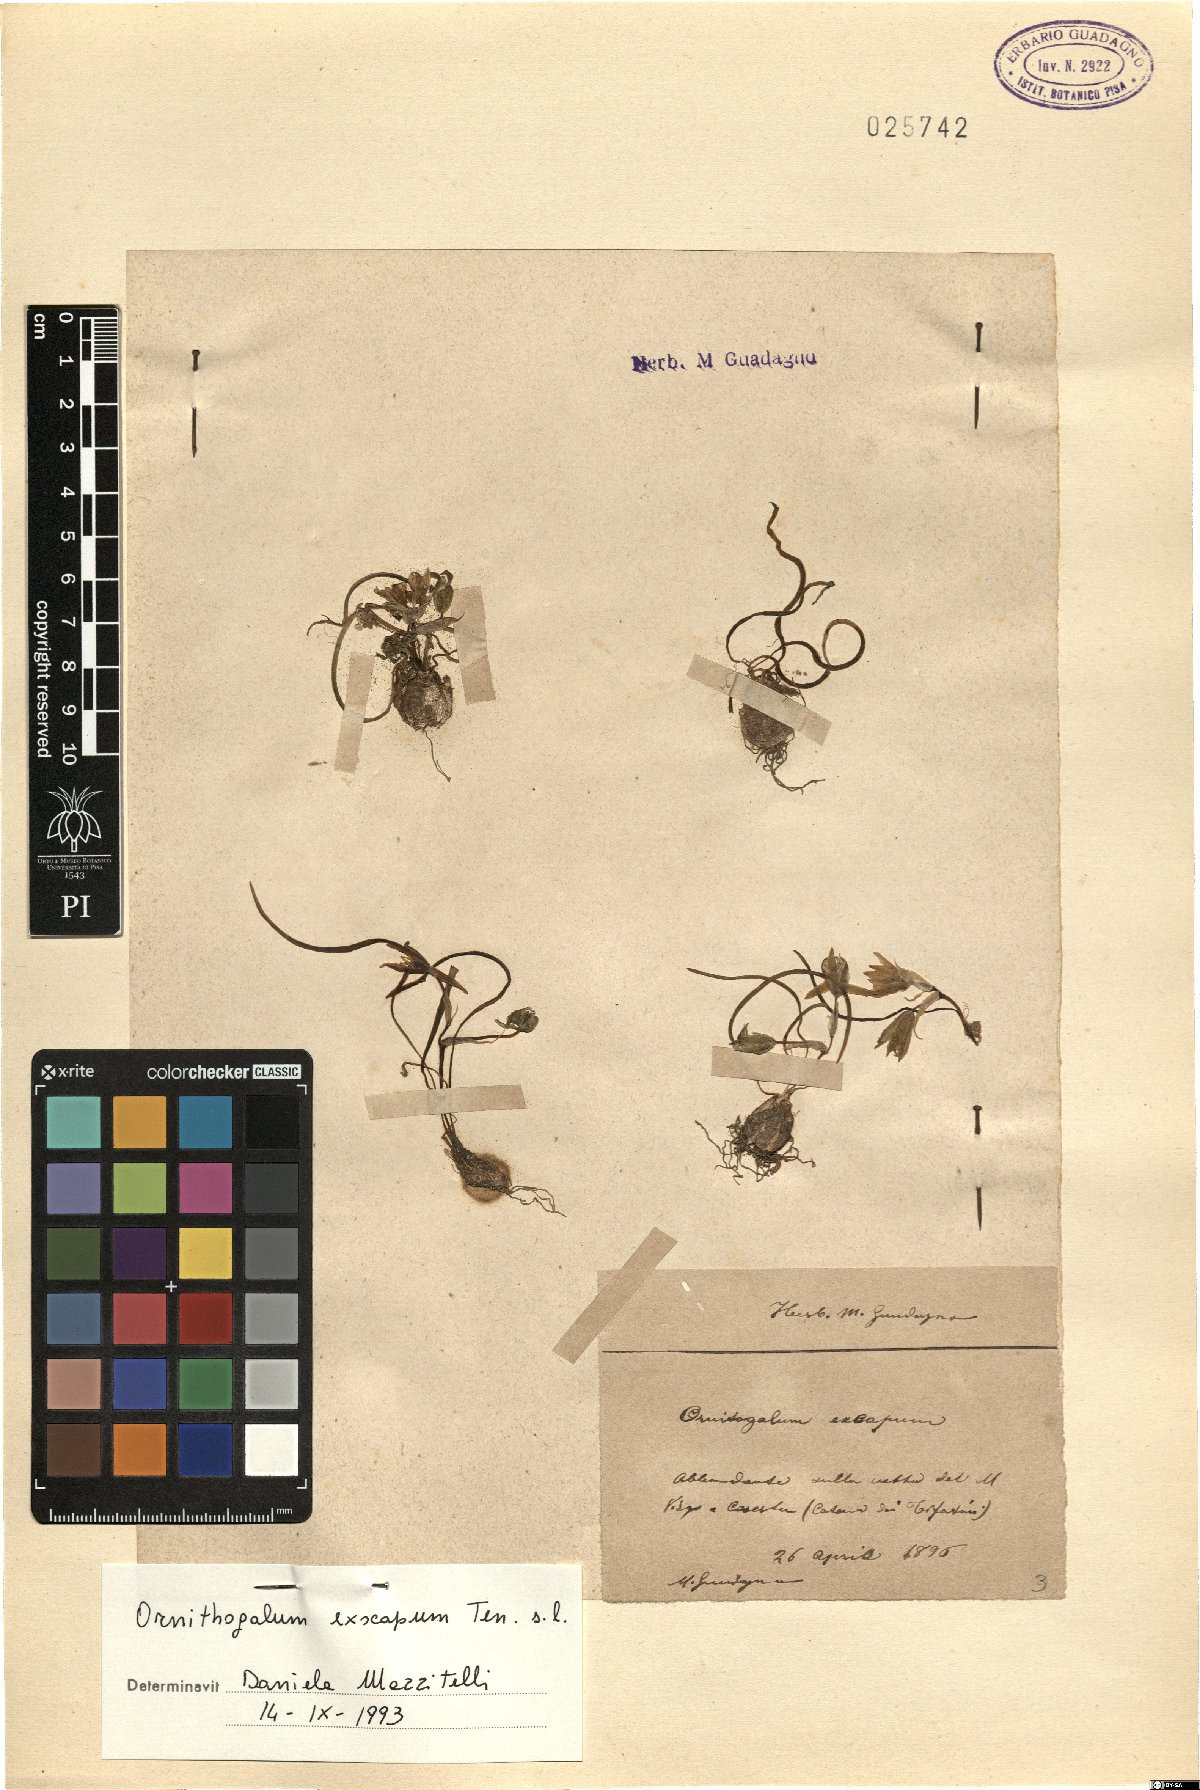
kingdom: Plantae
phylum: Tracheophyta
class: Liliopsida
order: Asparagales
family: Asparagaceae
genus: Ornithogalum
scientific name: Ornithogalum exscapum
